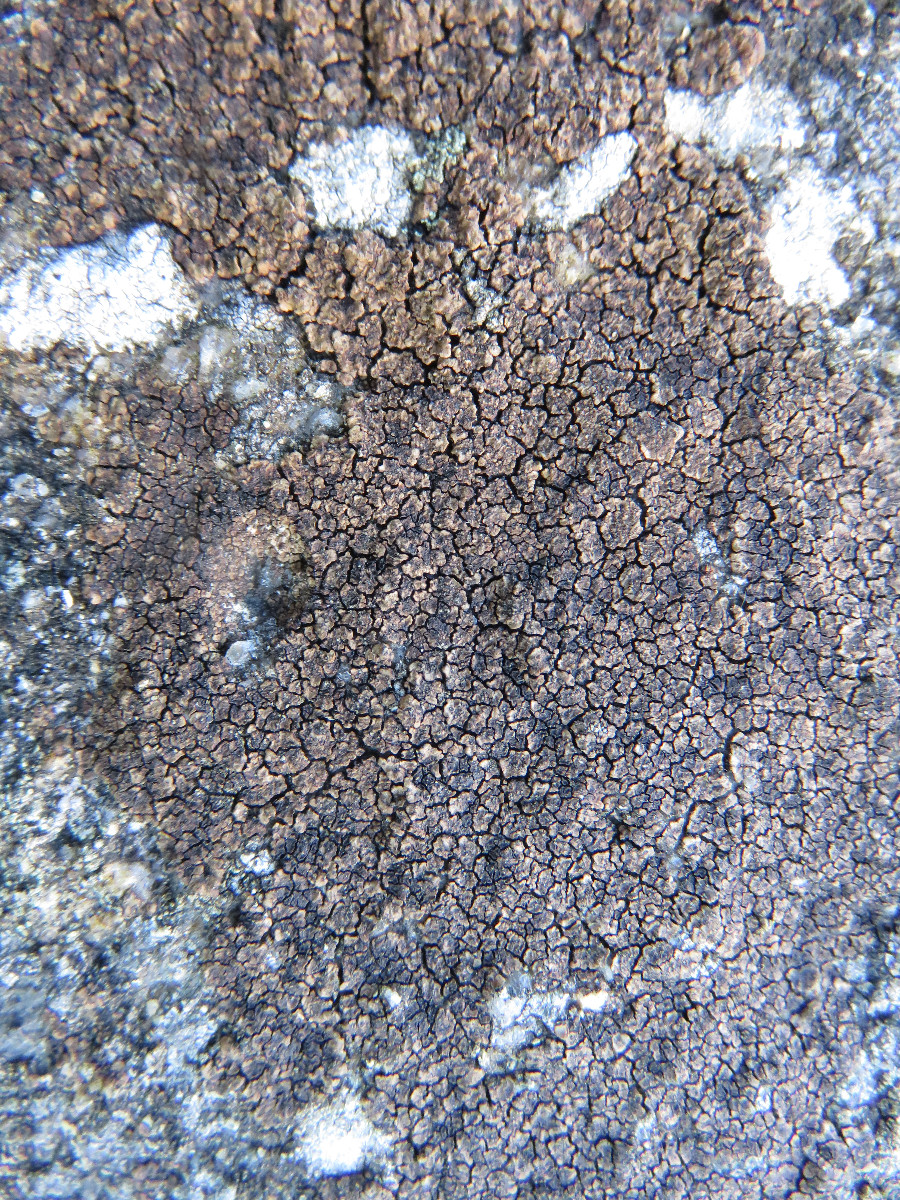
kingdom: Fungi
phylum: Ascomycota
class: Lecanoromycetes
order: Acarosporales
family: Acarosporaceae
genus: Acarospora
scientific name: Acarospora fuscata
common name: brun småsporelav
